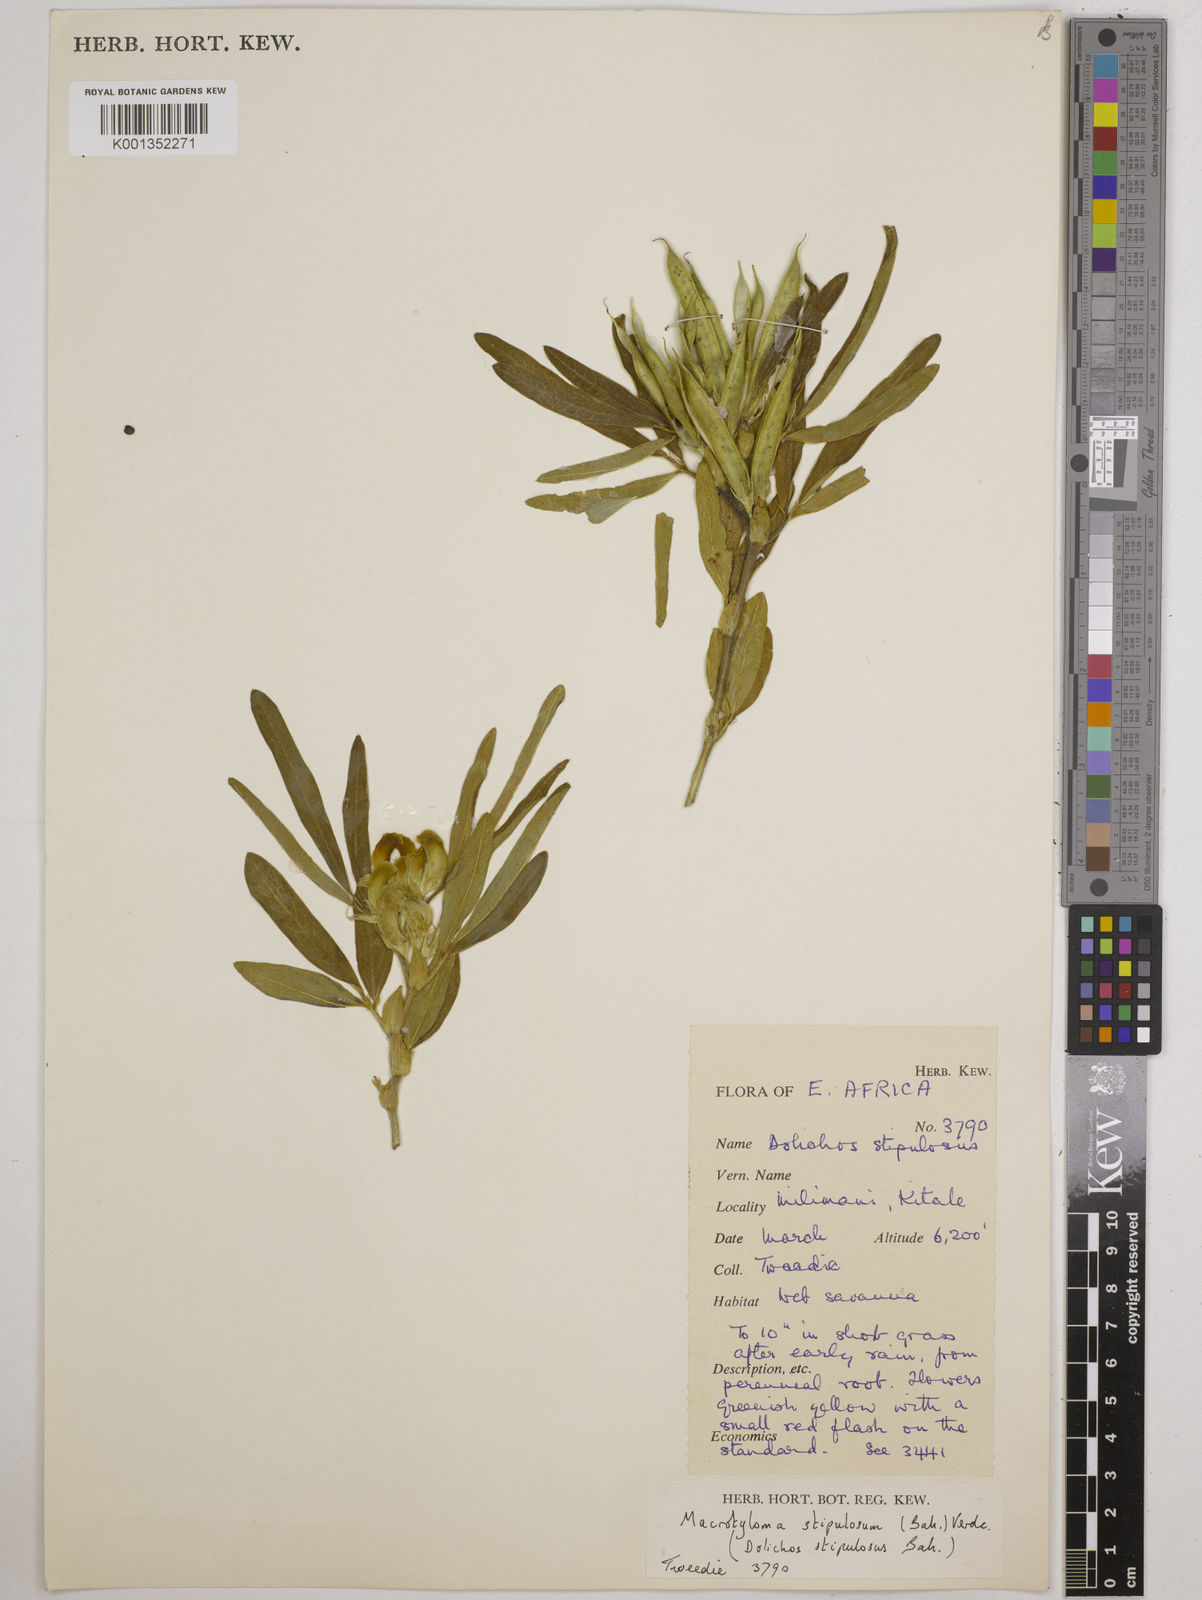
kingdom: Plantae
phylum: Tracheophyta
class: Magnoliopsida
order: Fabales
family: Fabaceae
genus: Macrotyloma
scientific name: Macrotyloma stipulosum
